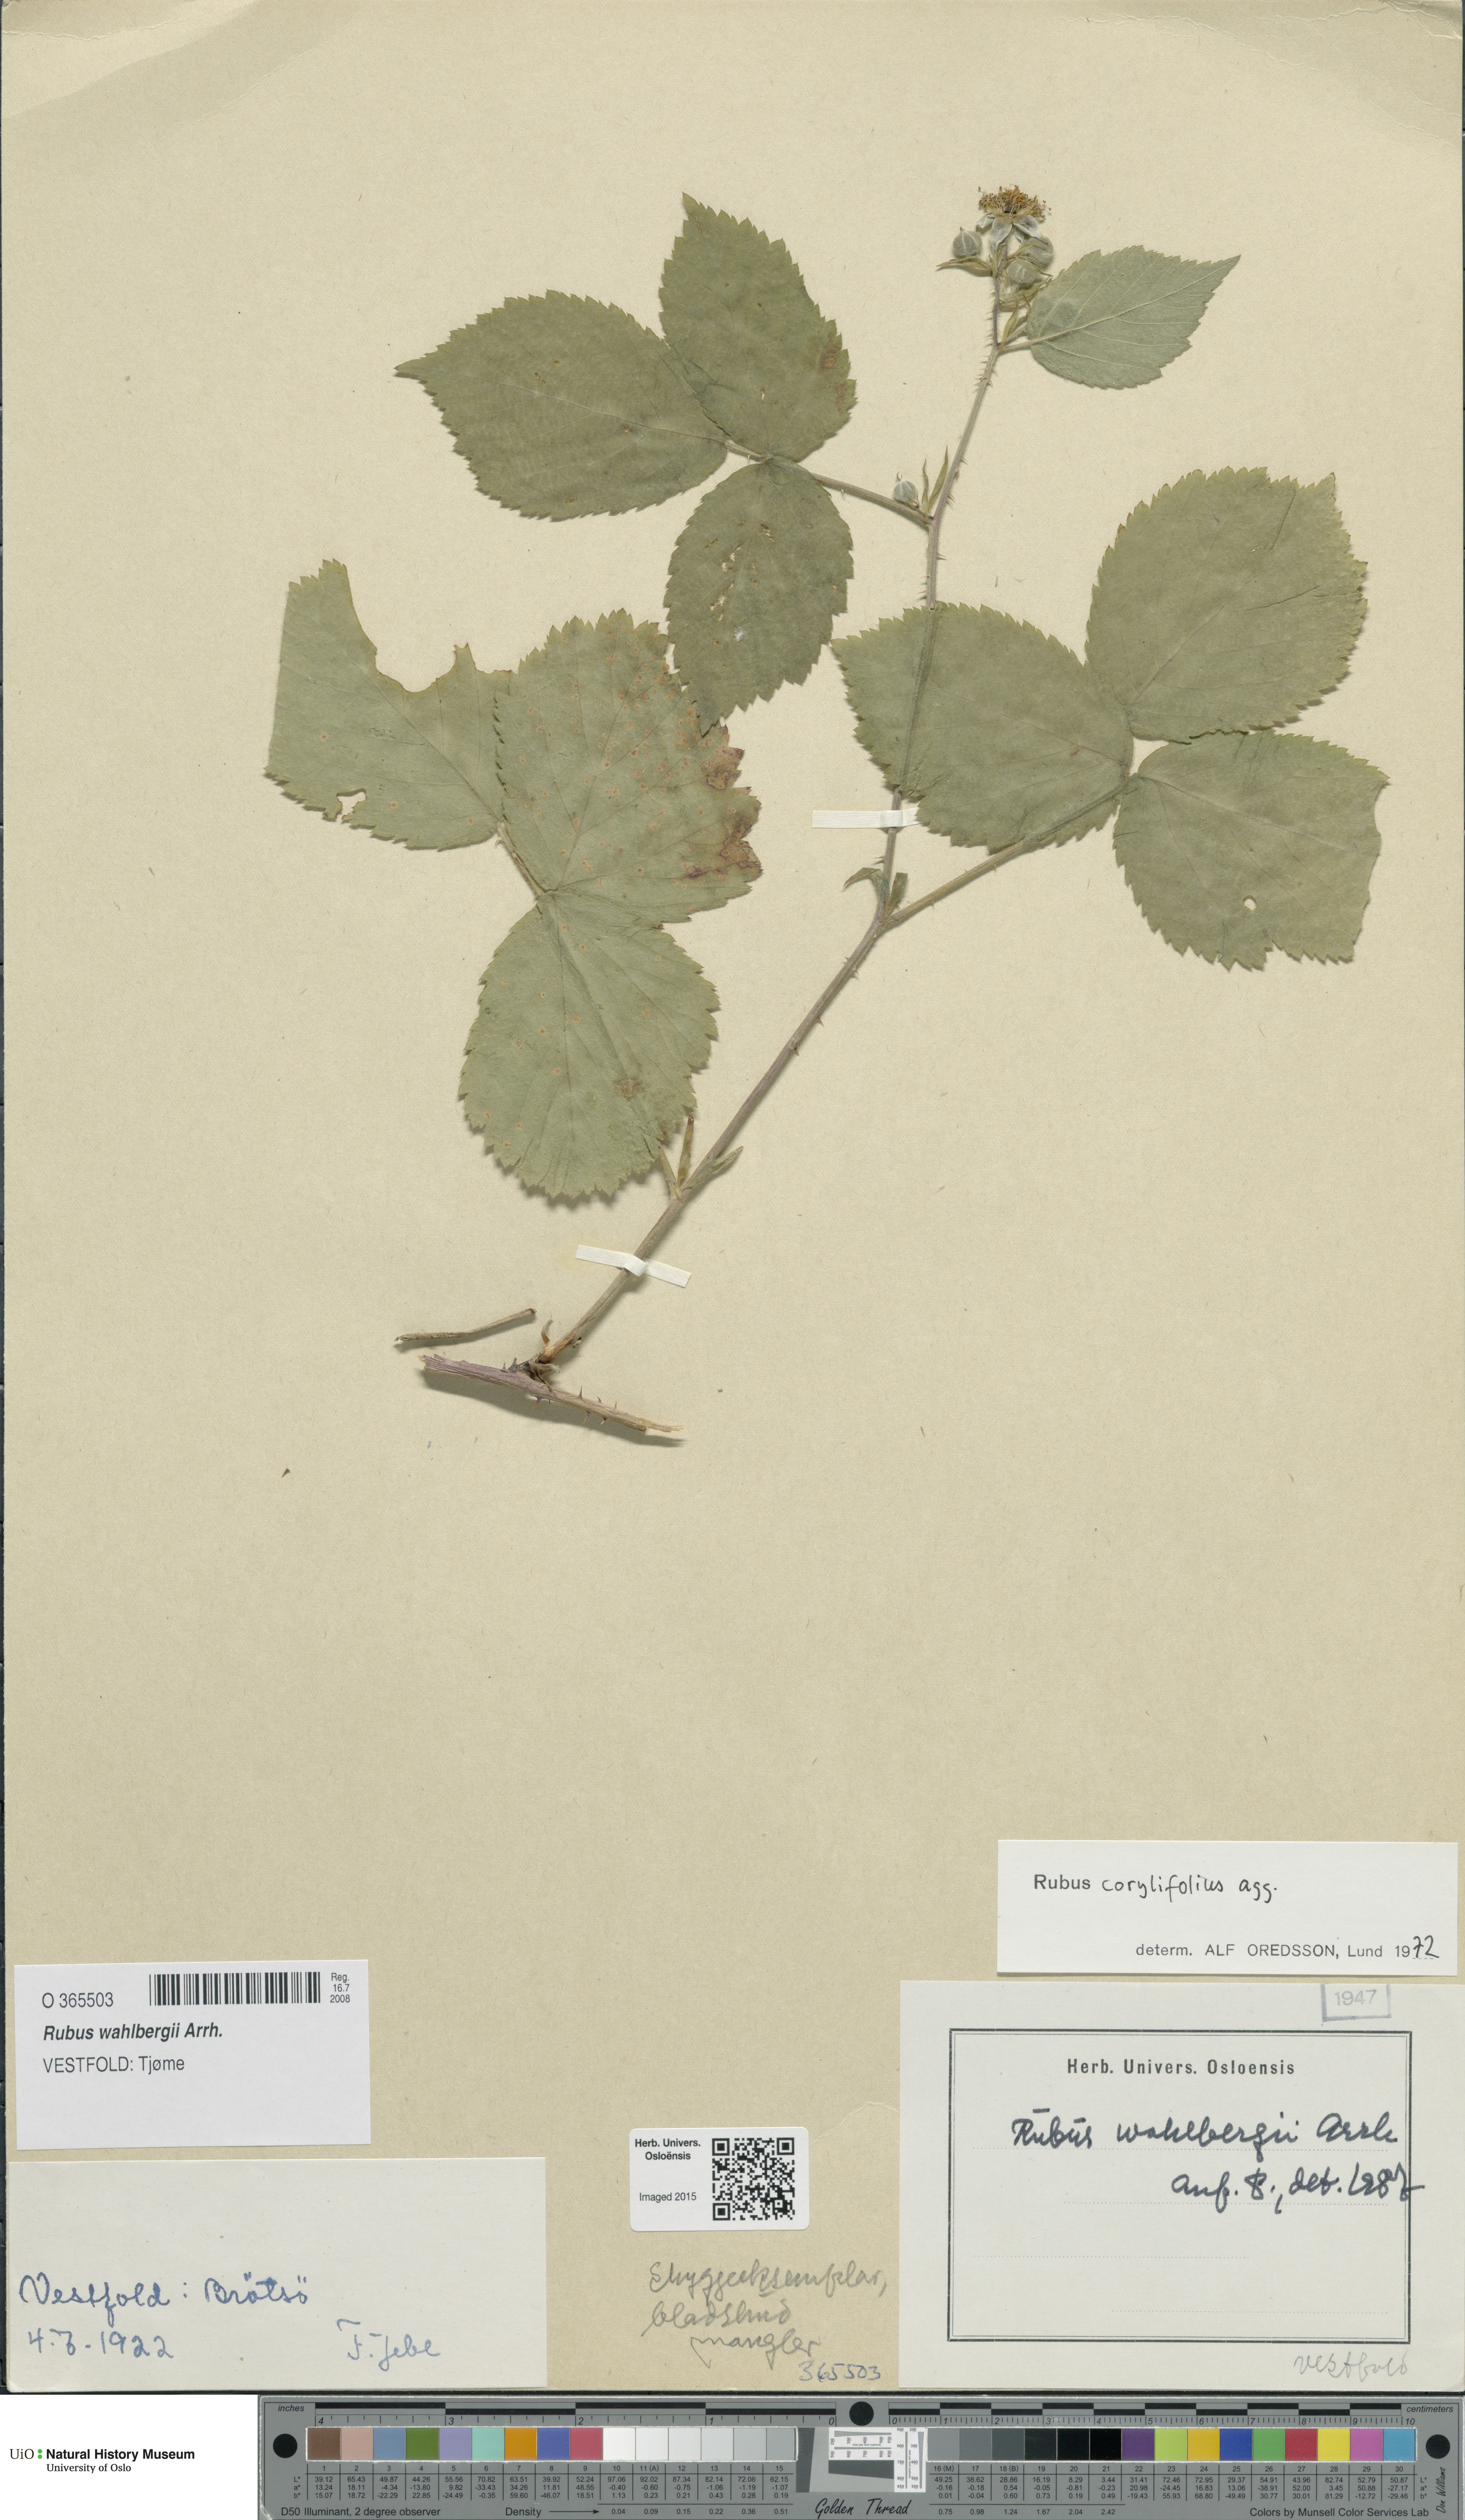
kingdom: Plantae
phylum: Tracheophyta
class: Magnoliopsida
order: Rosales
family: Rosaceae
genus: Rubus
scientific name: Rubus wahlbergii
